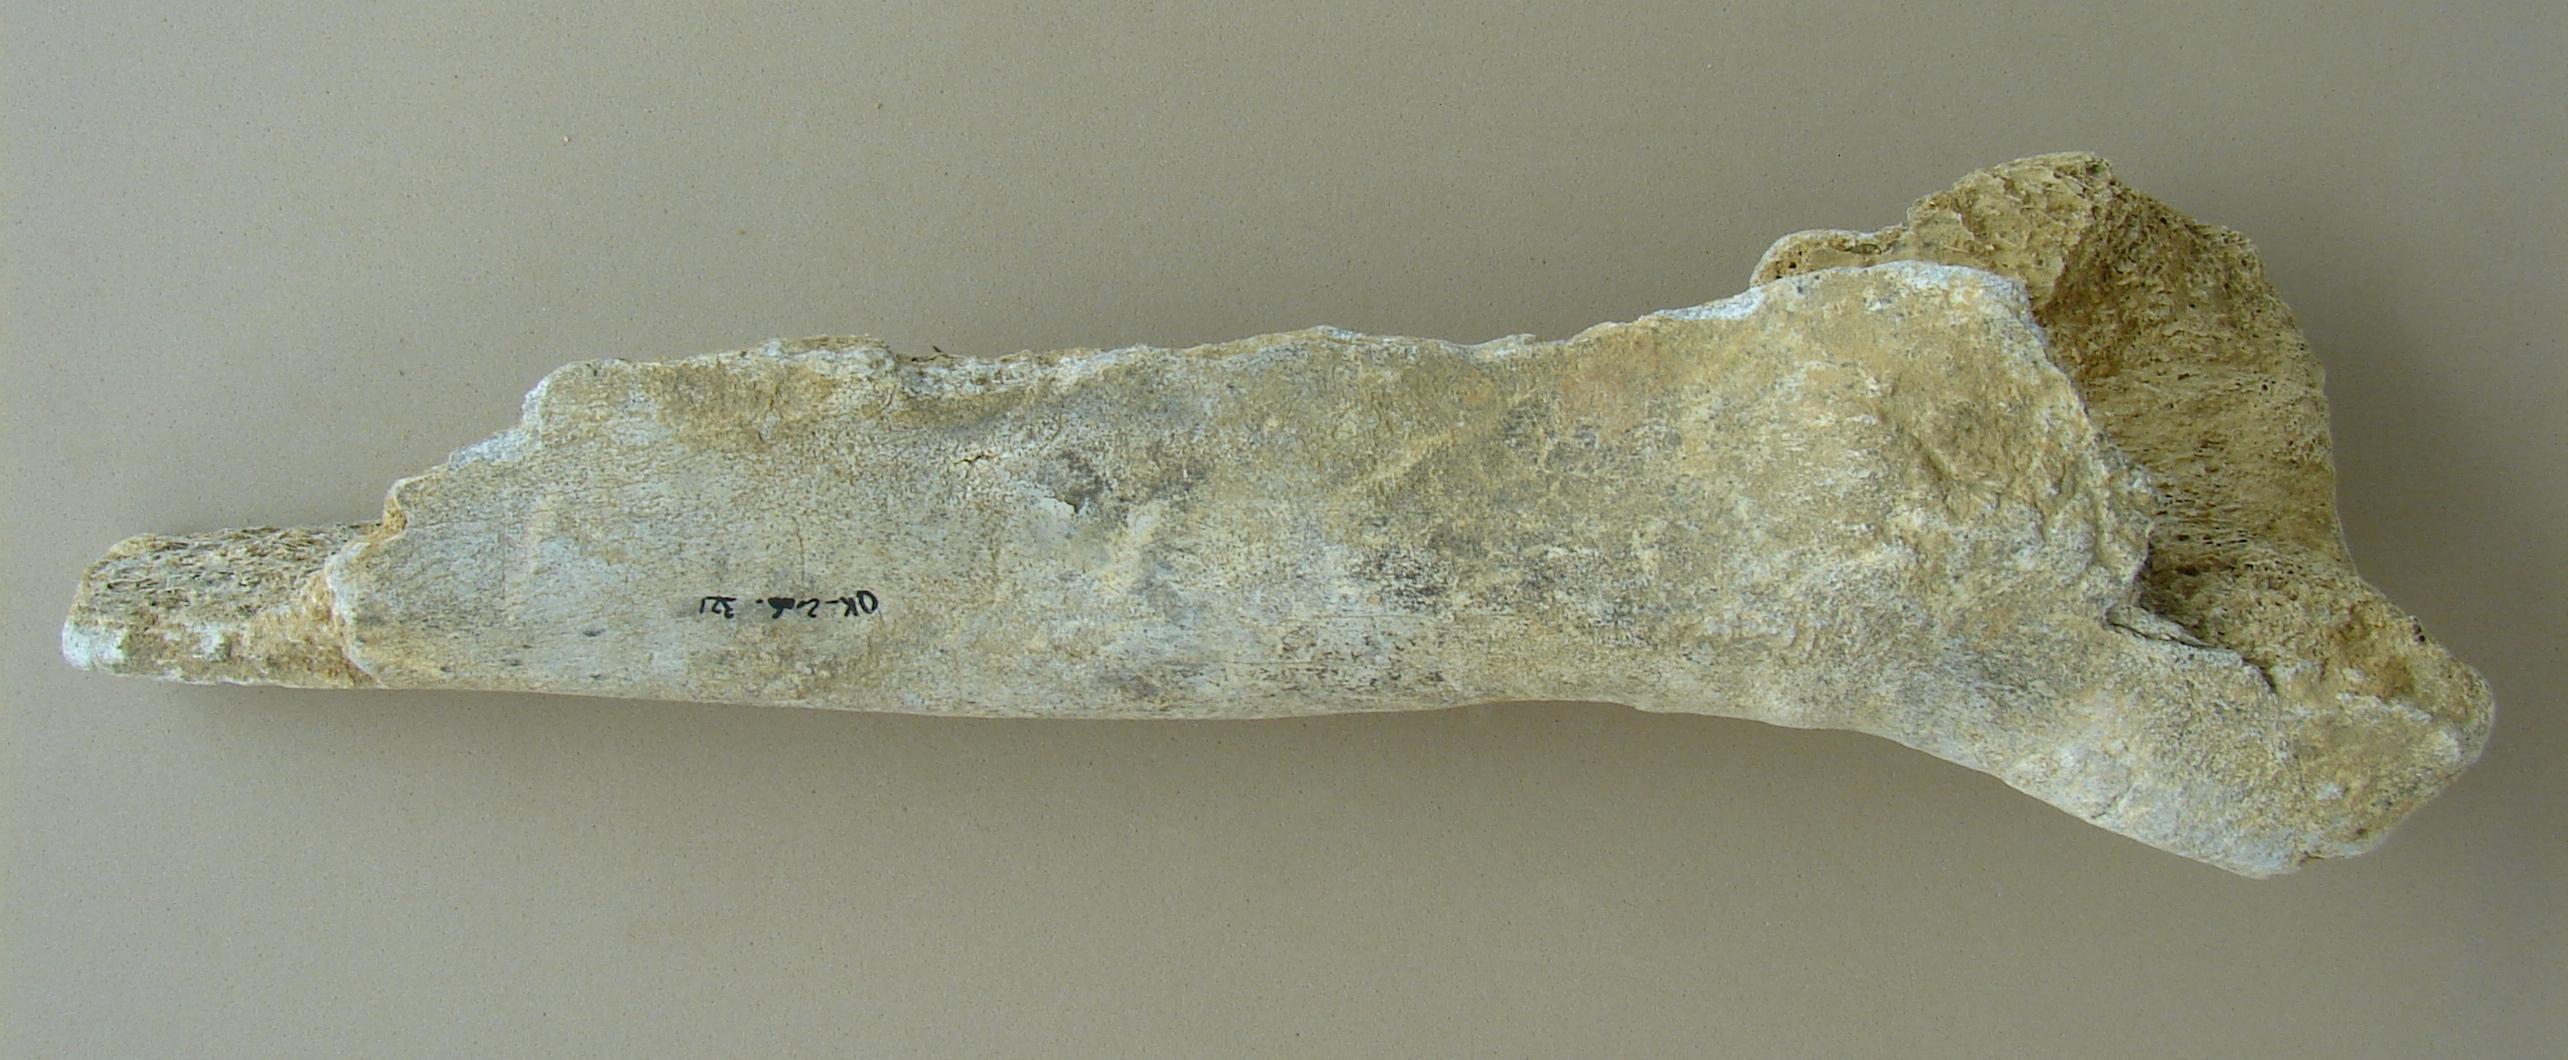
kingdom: Animalia
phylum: Chordata
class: Mammalia
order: Artiodactyla
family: Bovidae
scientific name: Bovidae
